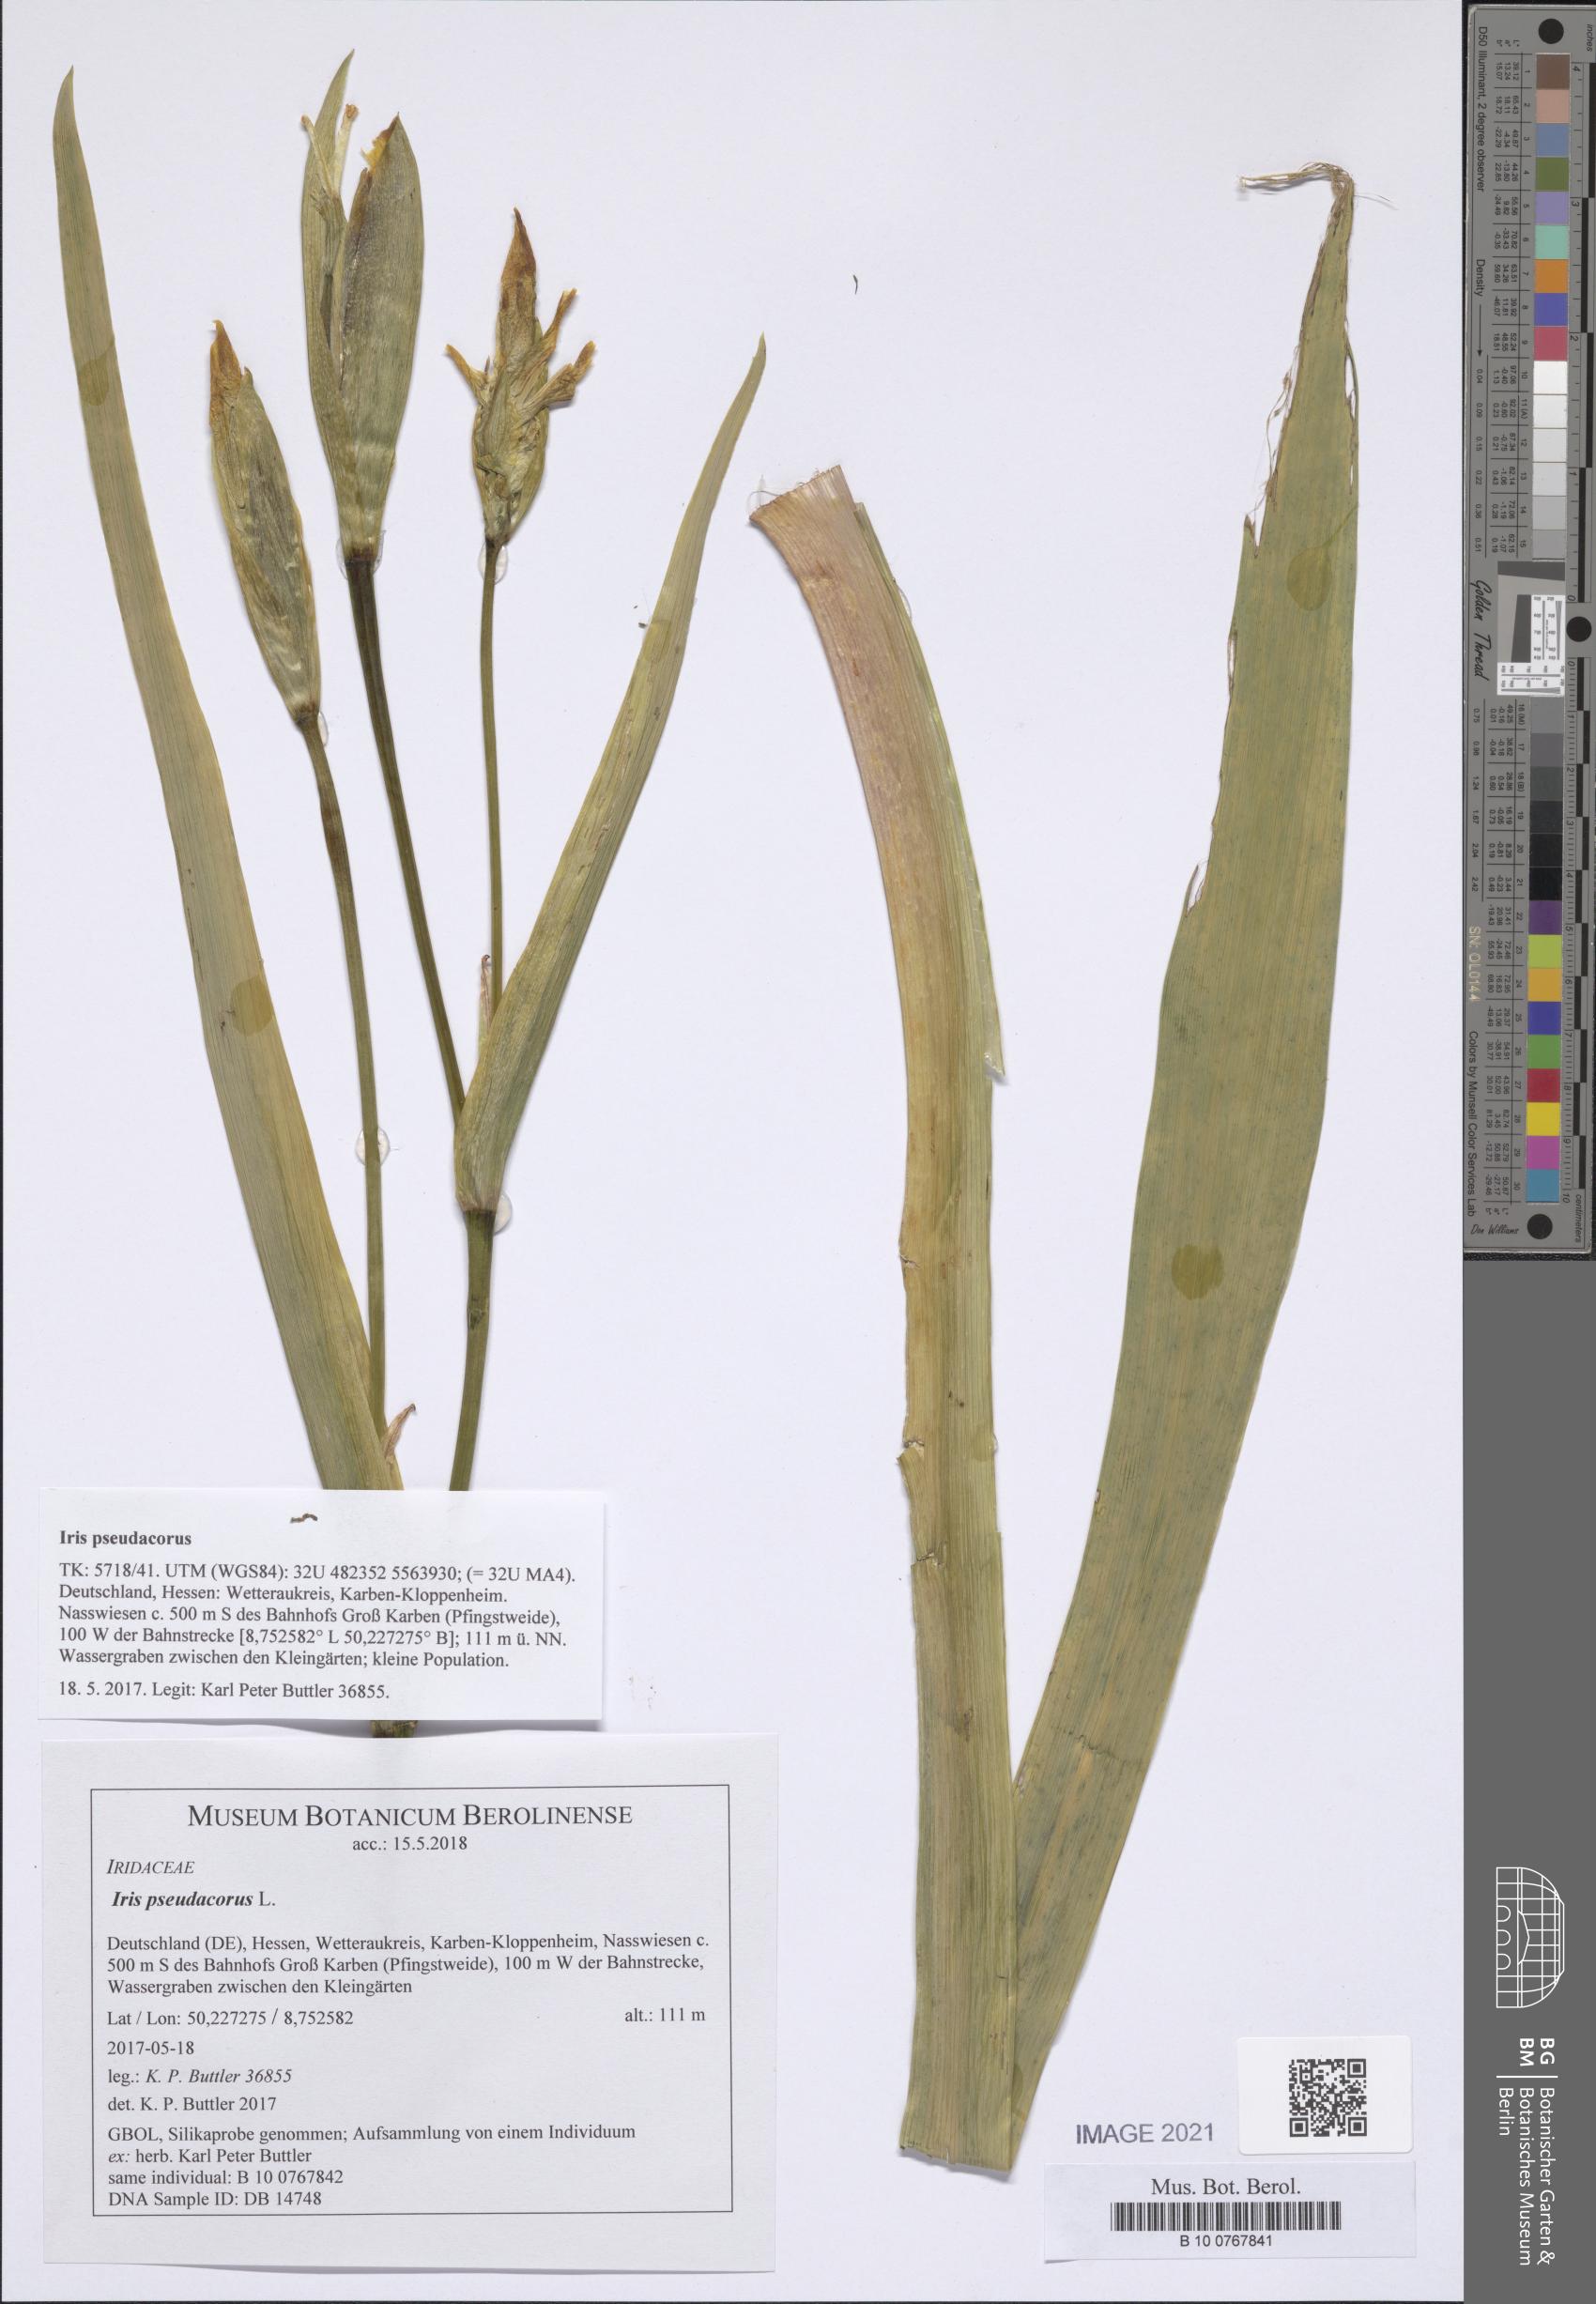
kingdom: Plantae
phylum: Tracheophyta
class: Liliopsida
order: Asparagales
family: Iridaceae
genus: Iris
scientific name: Iris pseudacorus
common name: Yellow flag
